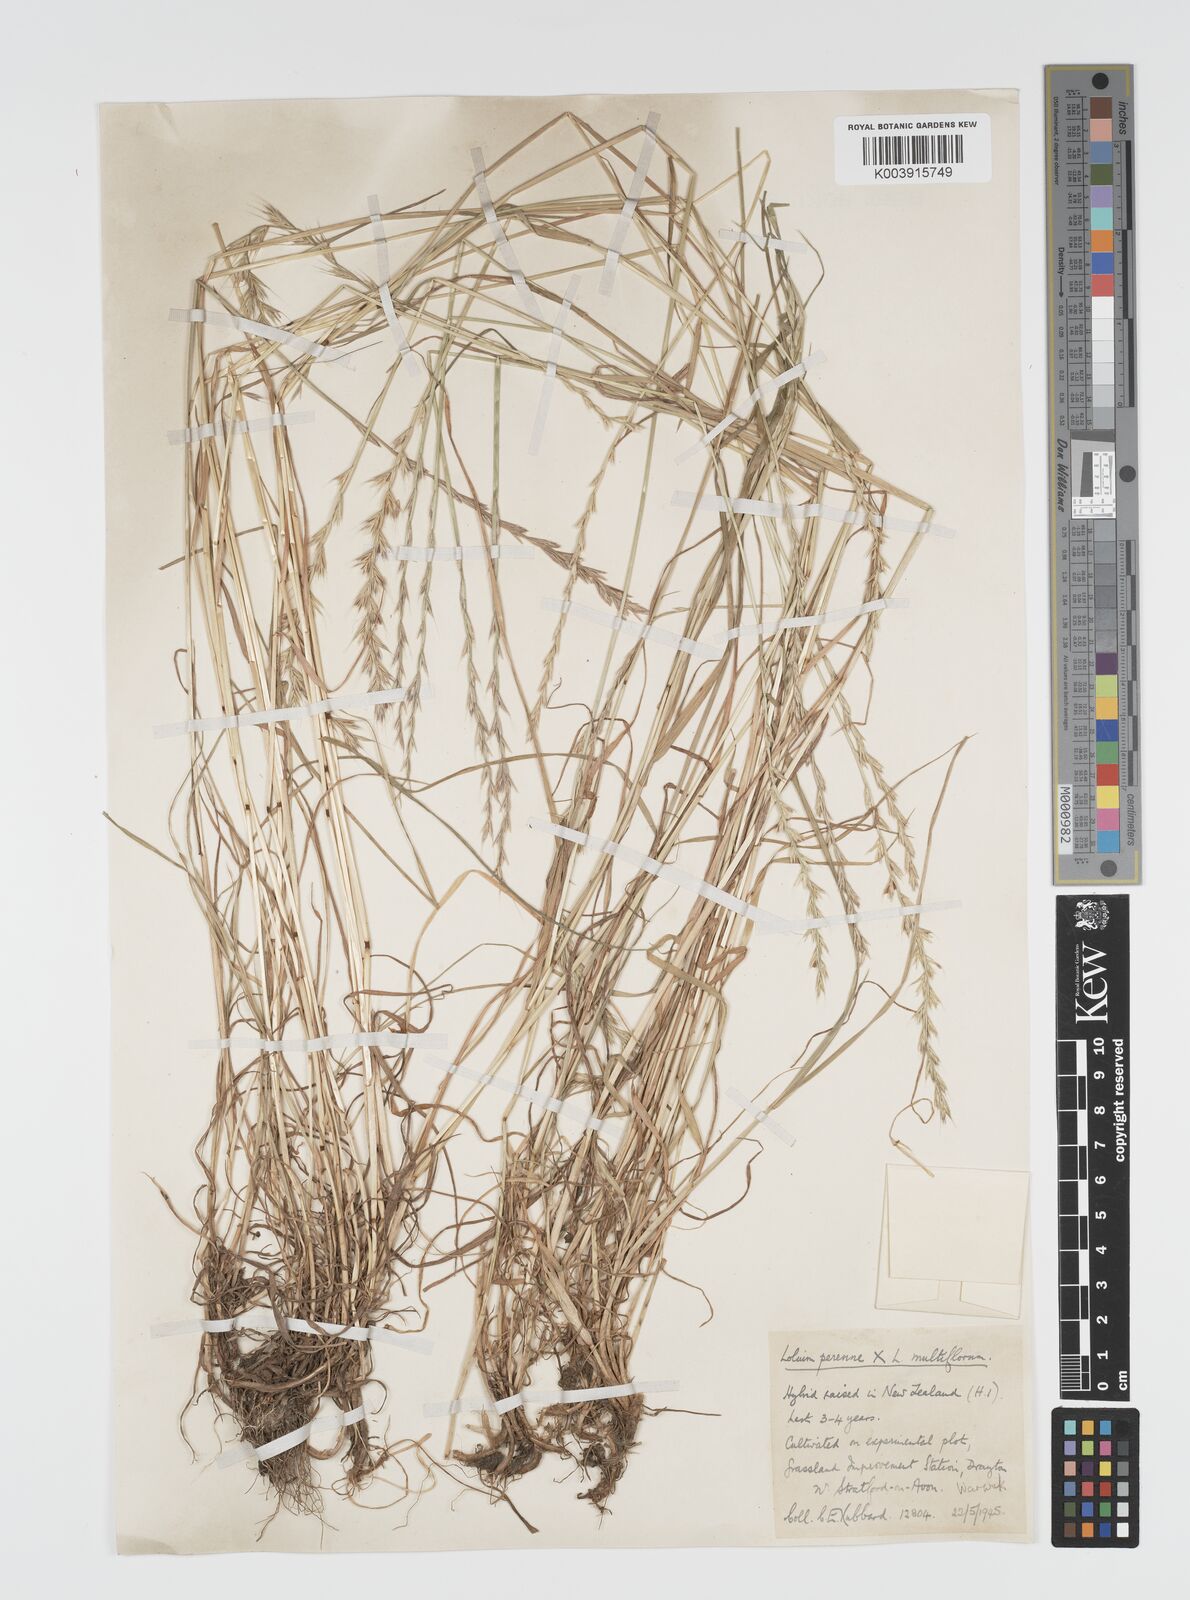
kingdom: Plantae
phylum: Tracheophyta
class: Liliopsida
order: Poales
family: Poaceae
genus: Lolium
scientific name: Lolium boucheanum
